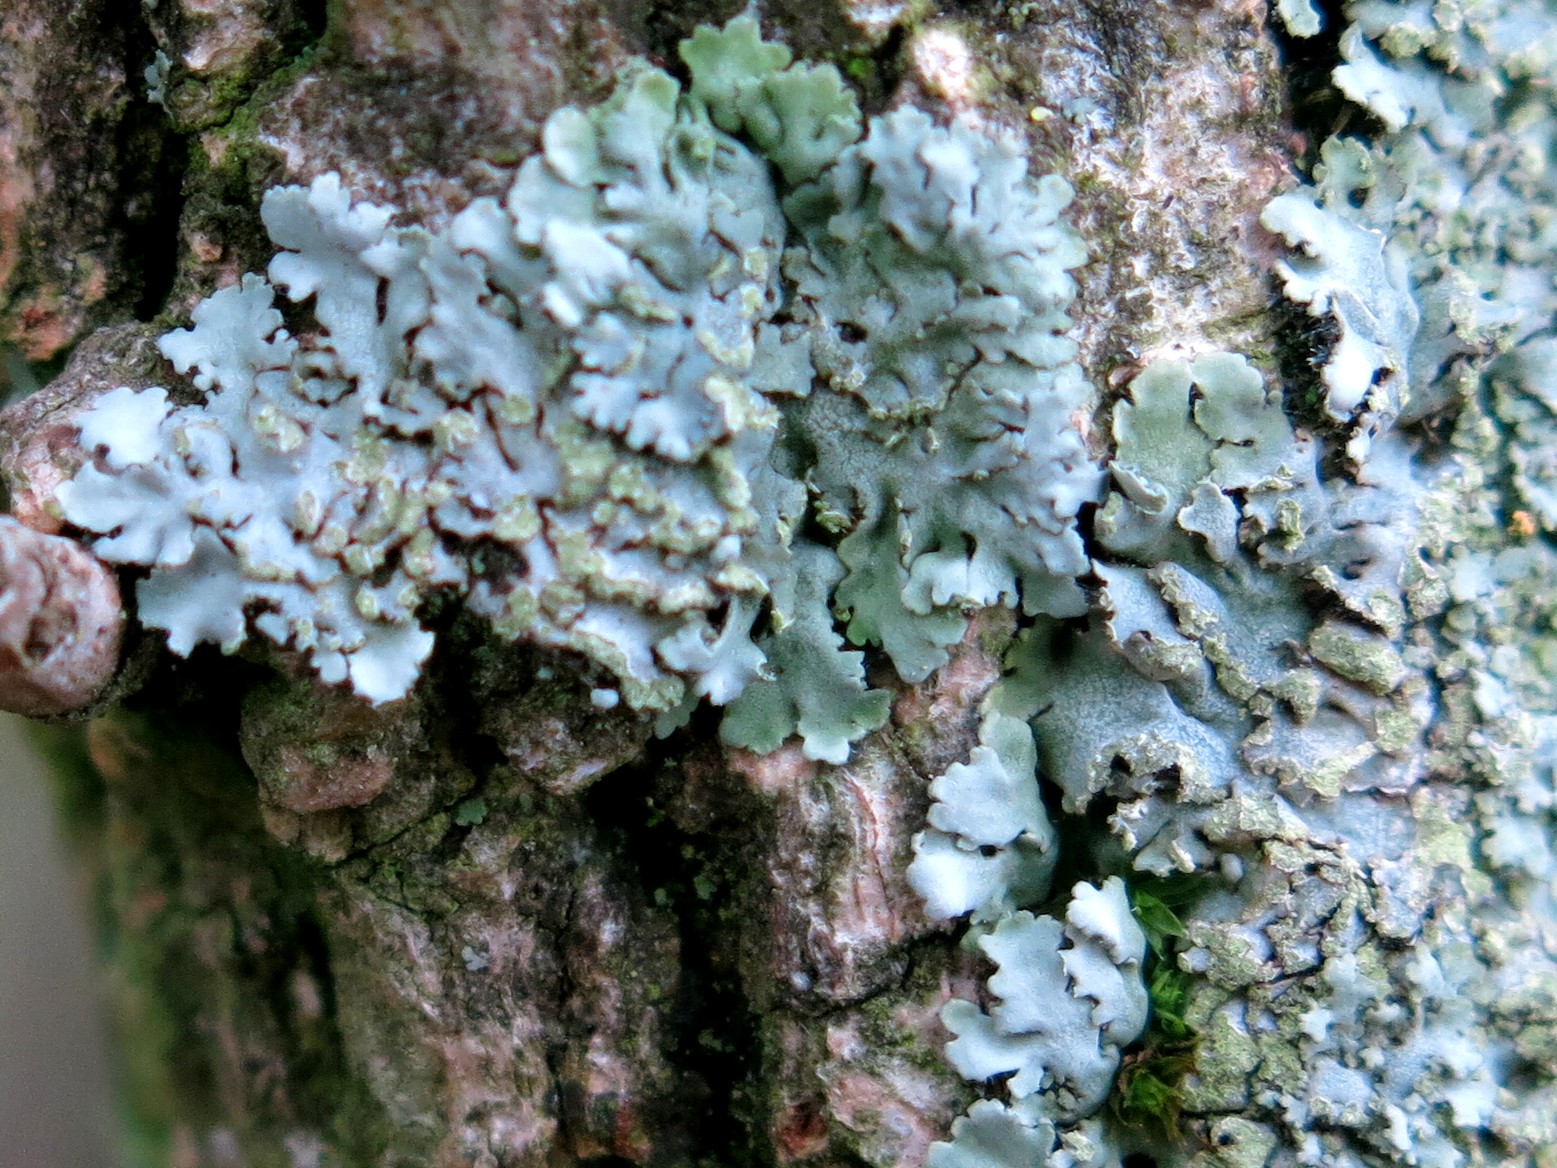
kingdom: Fungi
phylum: Ascomycota
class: Lecanoromycetes
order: Caliciales
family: Physciaceae
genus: Poeltonia
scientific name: Poeltonia grisea
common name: hvidgrå dugrosetlav
